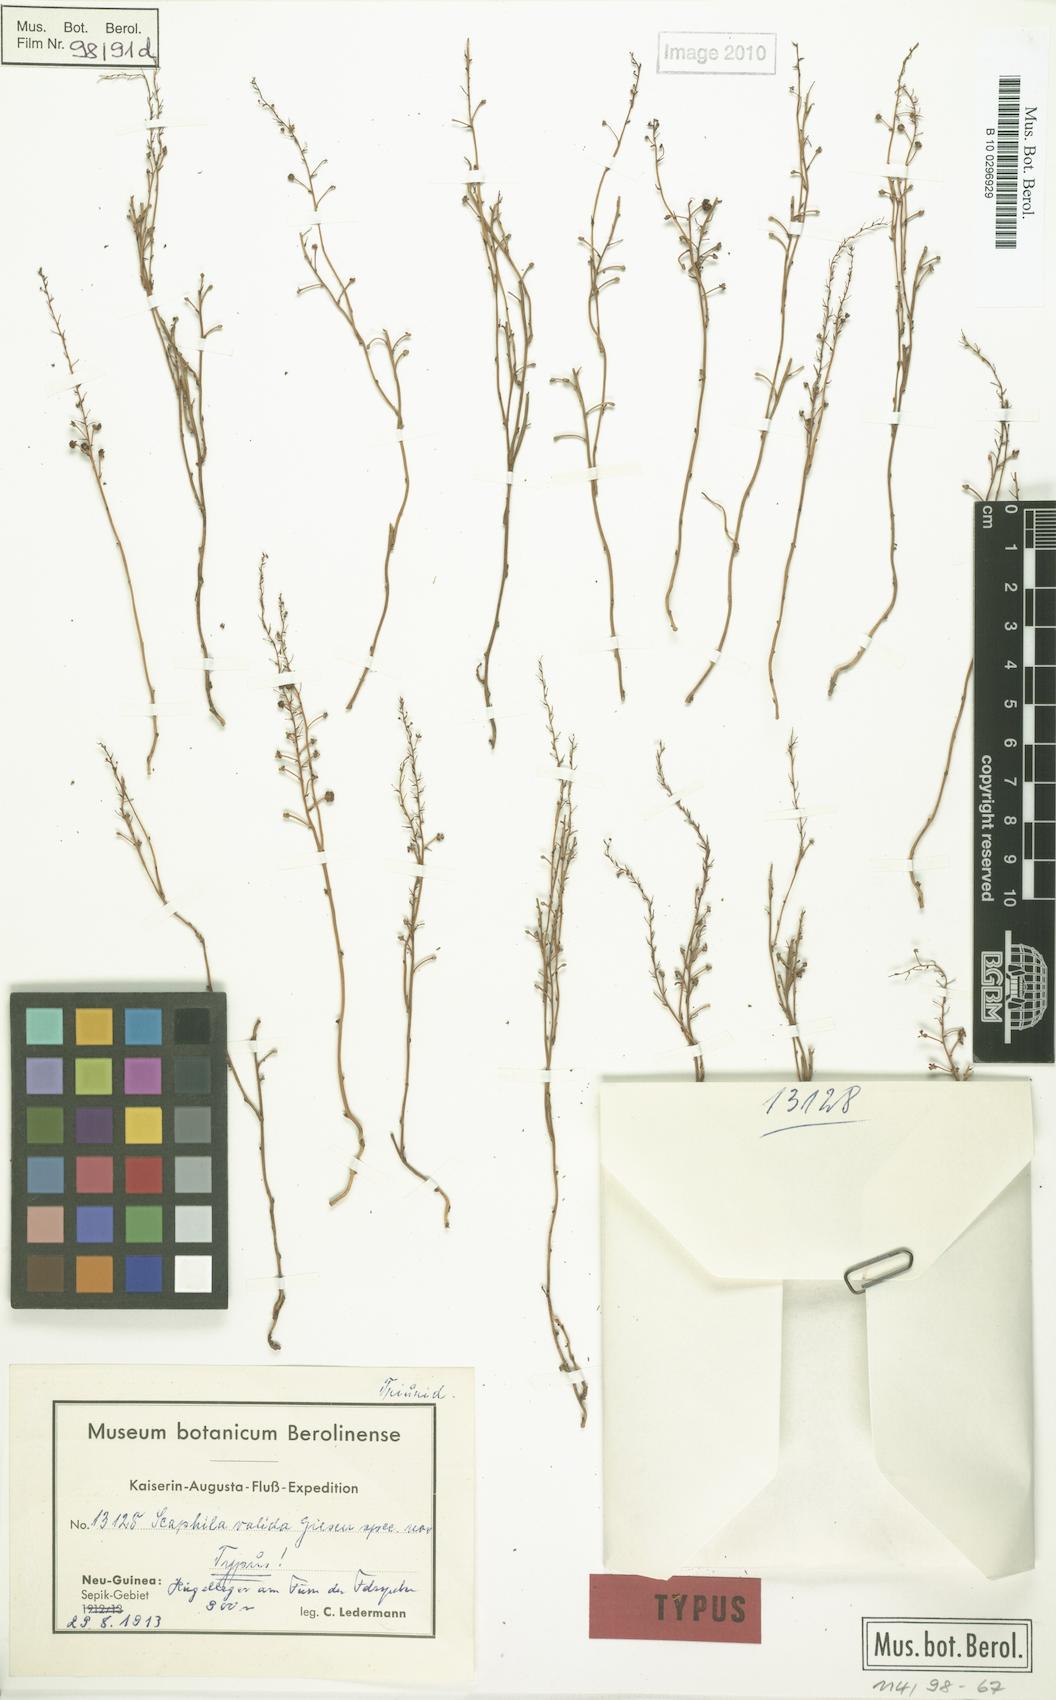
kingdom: Plantae
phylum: Tracheophyta
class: Liliopsida
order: Pandanales
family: Triuridaceae
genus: Sciaphila
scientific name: Sciaphila arfakiana
